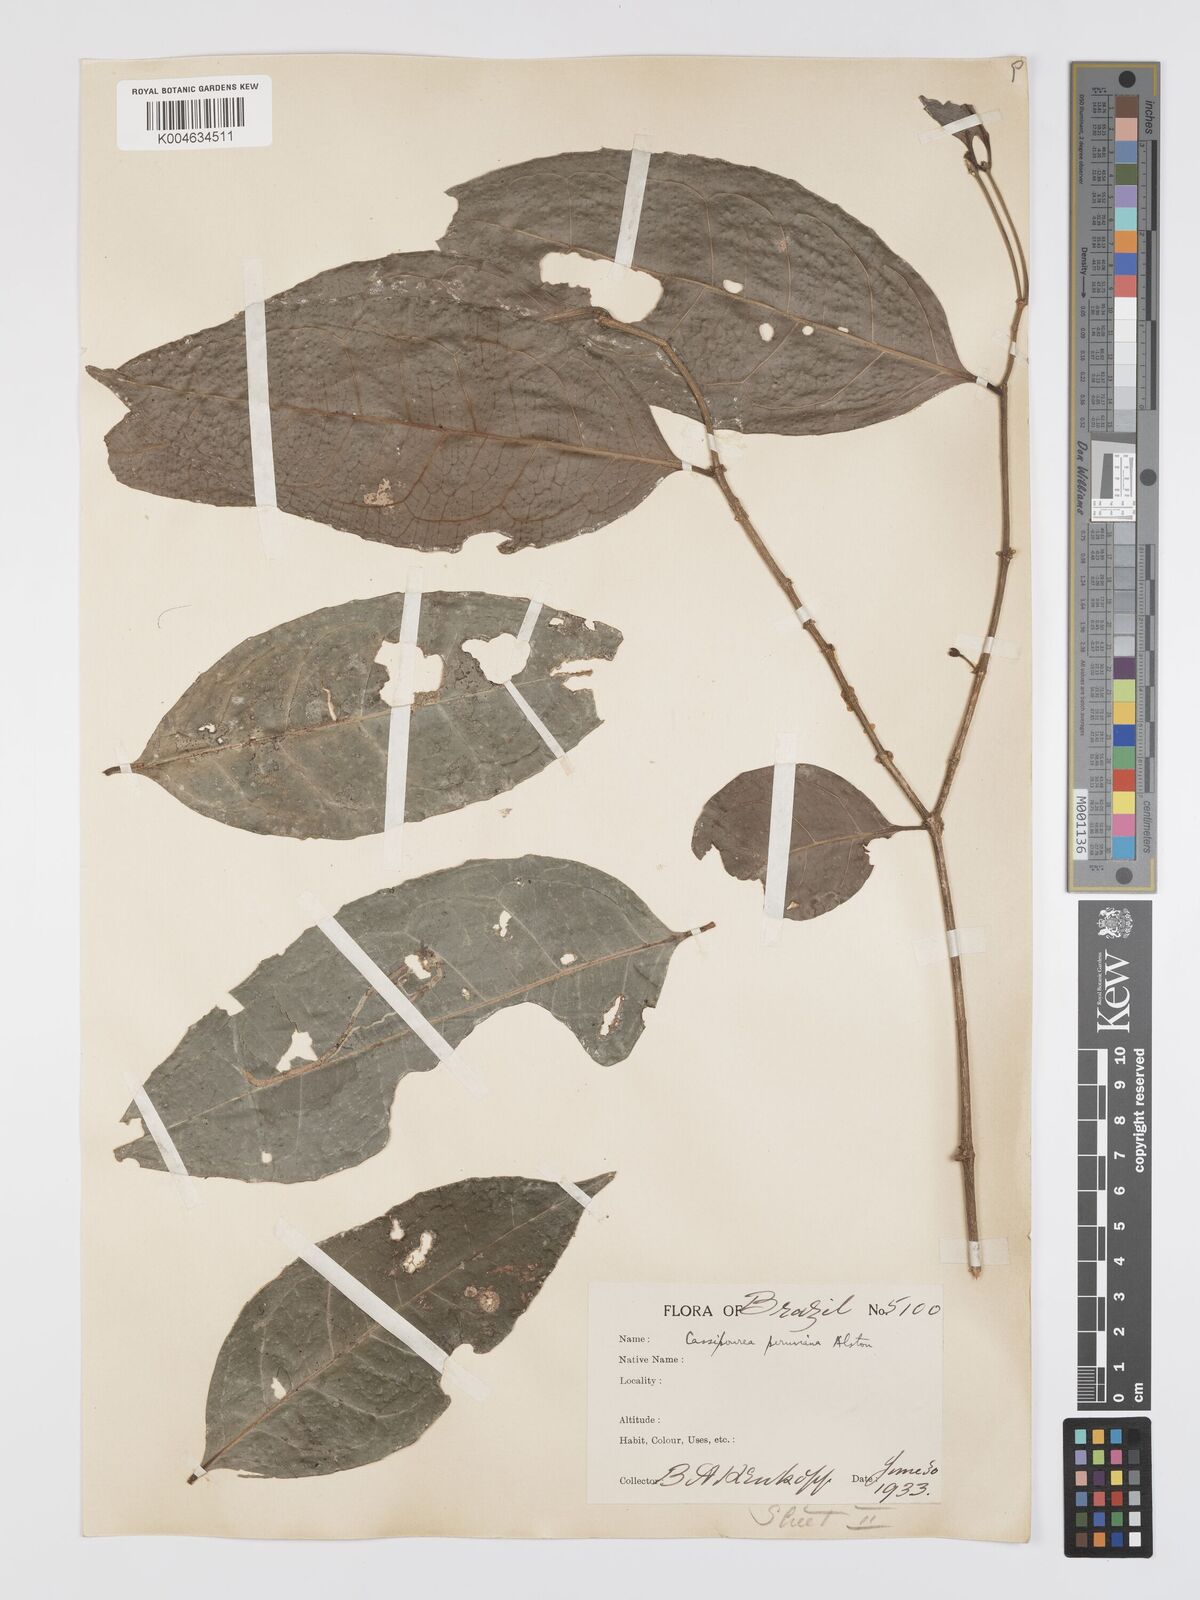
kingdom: Plantae
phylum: Tracheophyta
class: Magnoliopsida
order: Malpighiales
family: Rhizophoraceae
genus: Cassipourea
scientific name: Cassipourea peruviana
